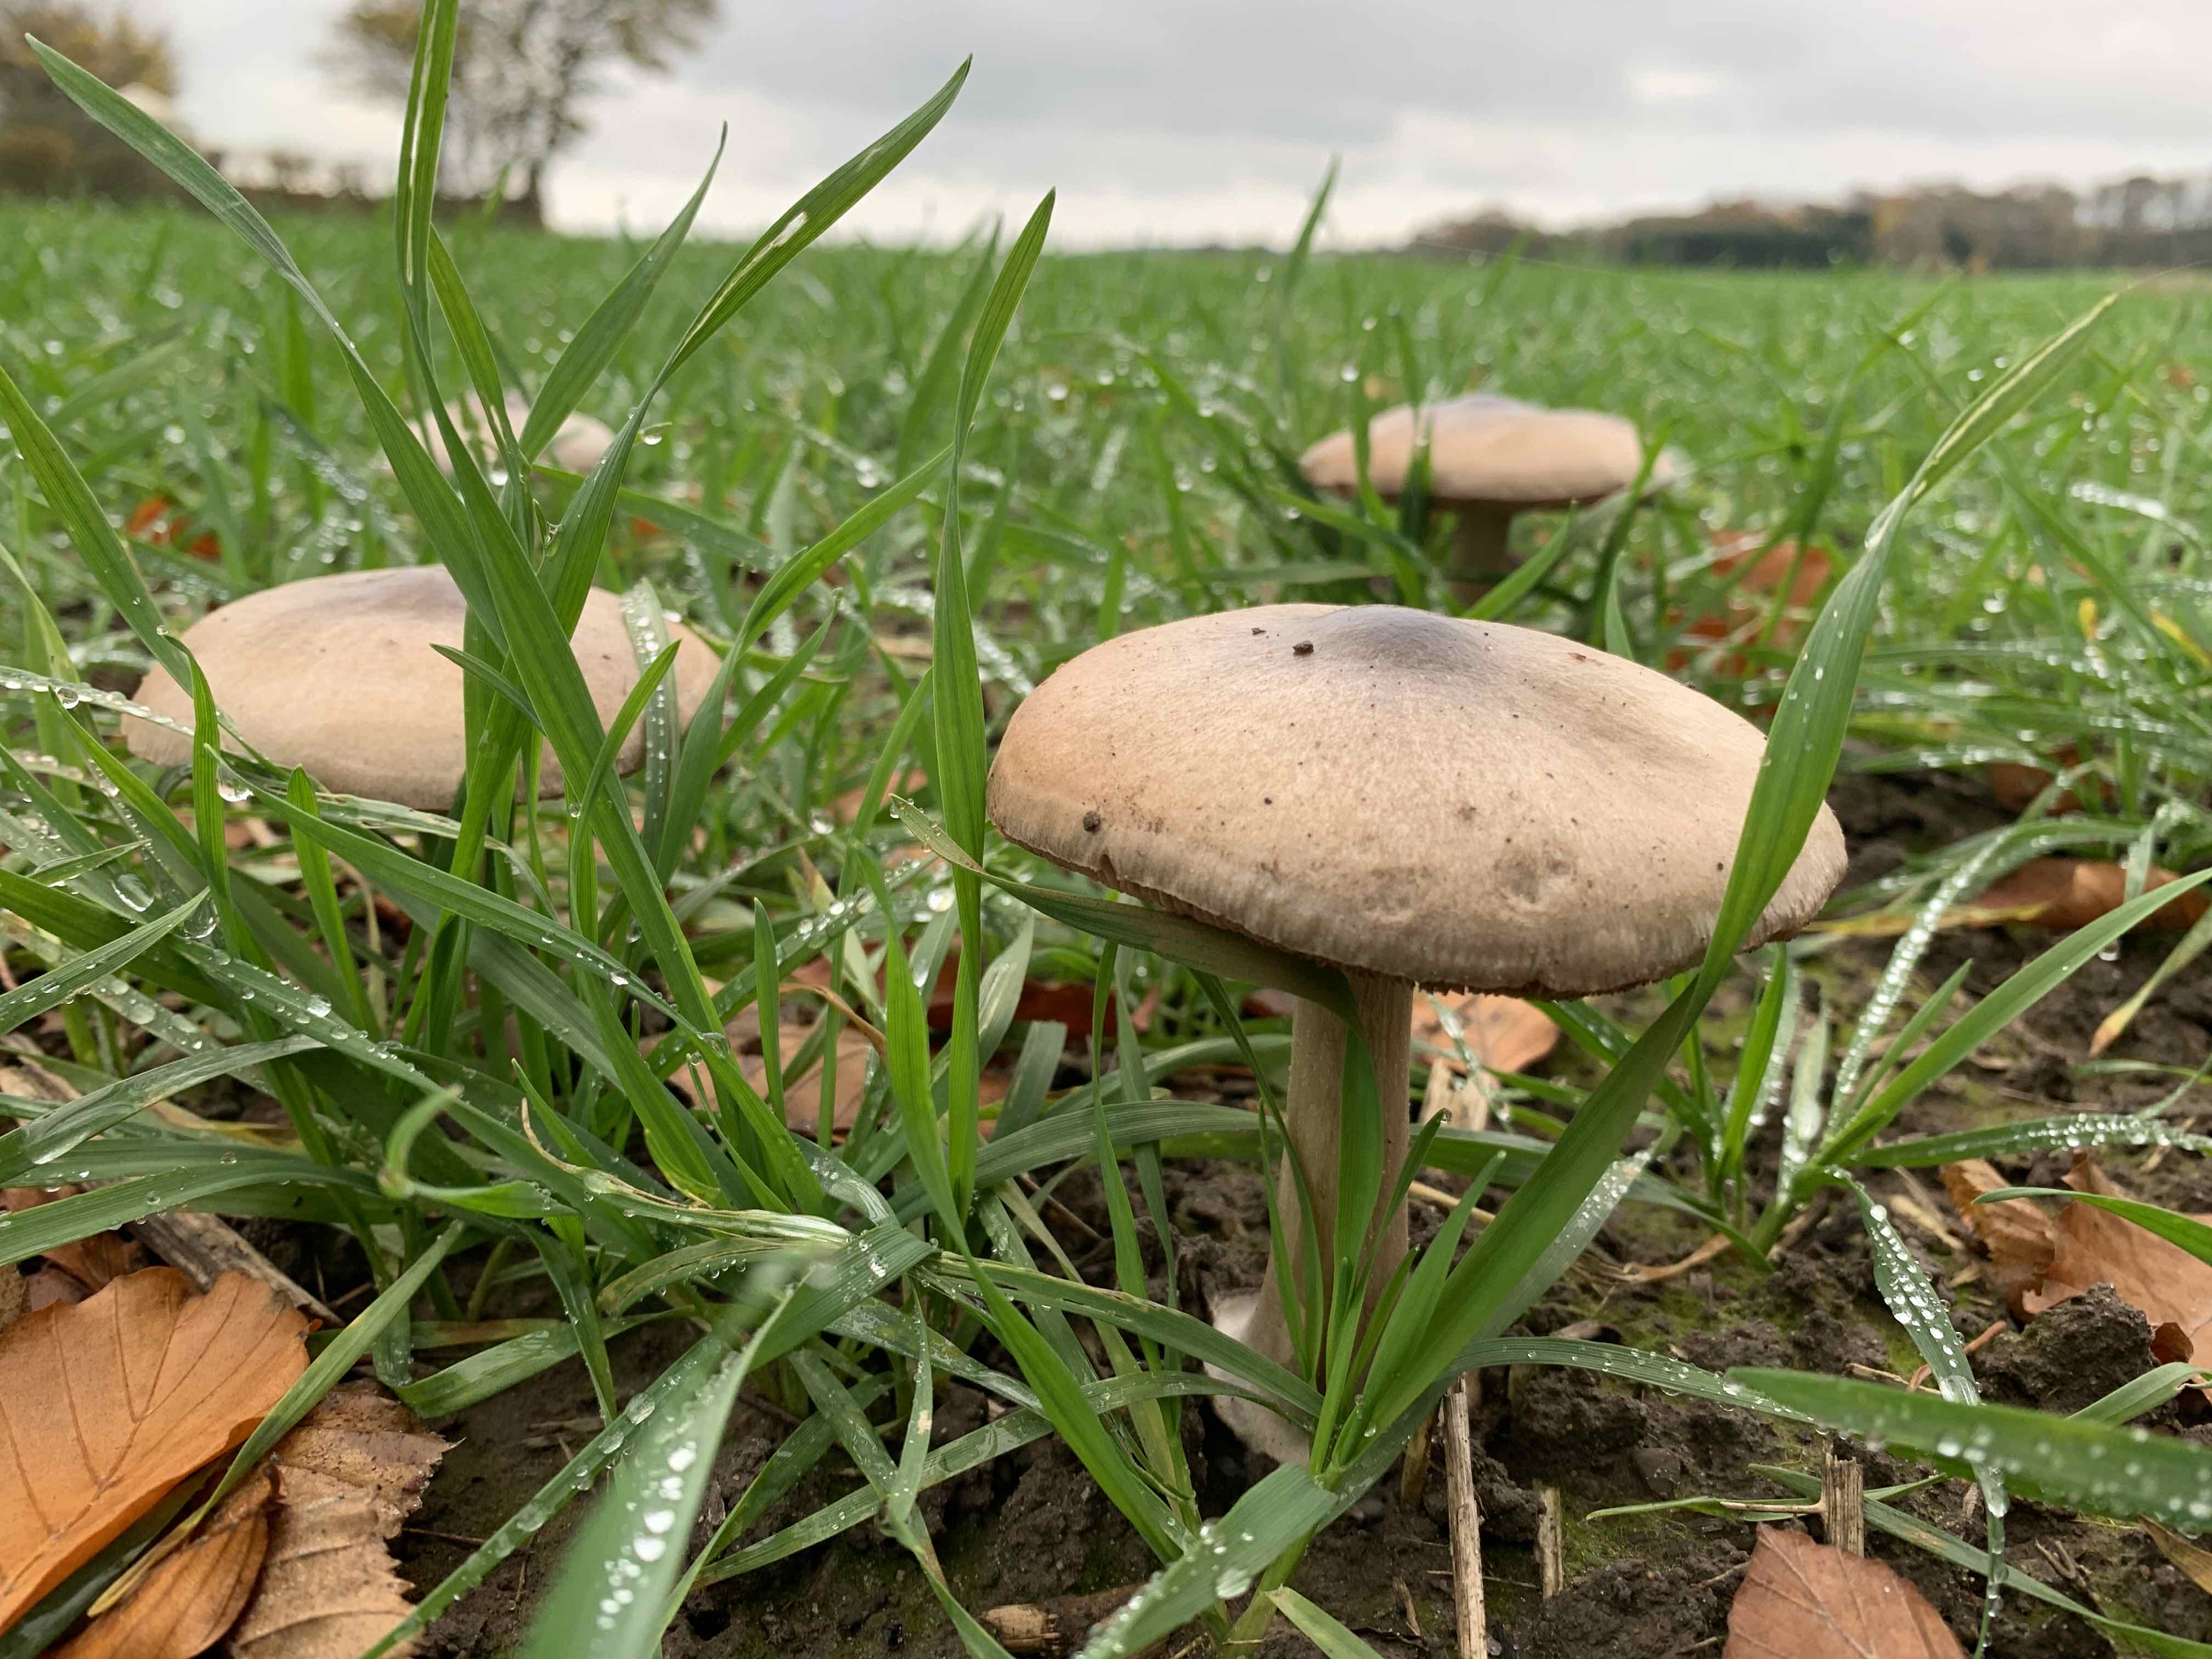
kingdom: Fungi
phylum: Basidiomycota
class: Agaricomycetes
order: Agaricales
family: Pluteaceae
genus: Volvopluteus
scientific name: Volvopluteus gloiocephalus
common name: høj posesvamp
